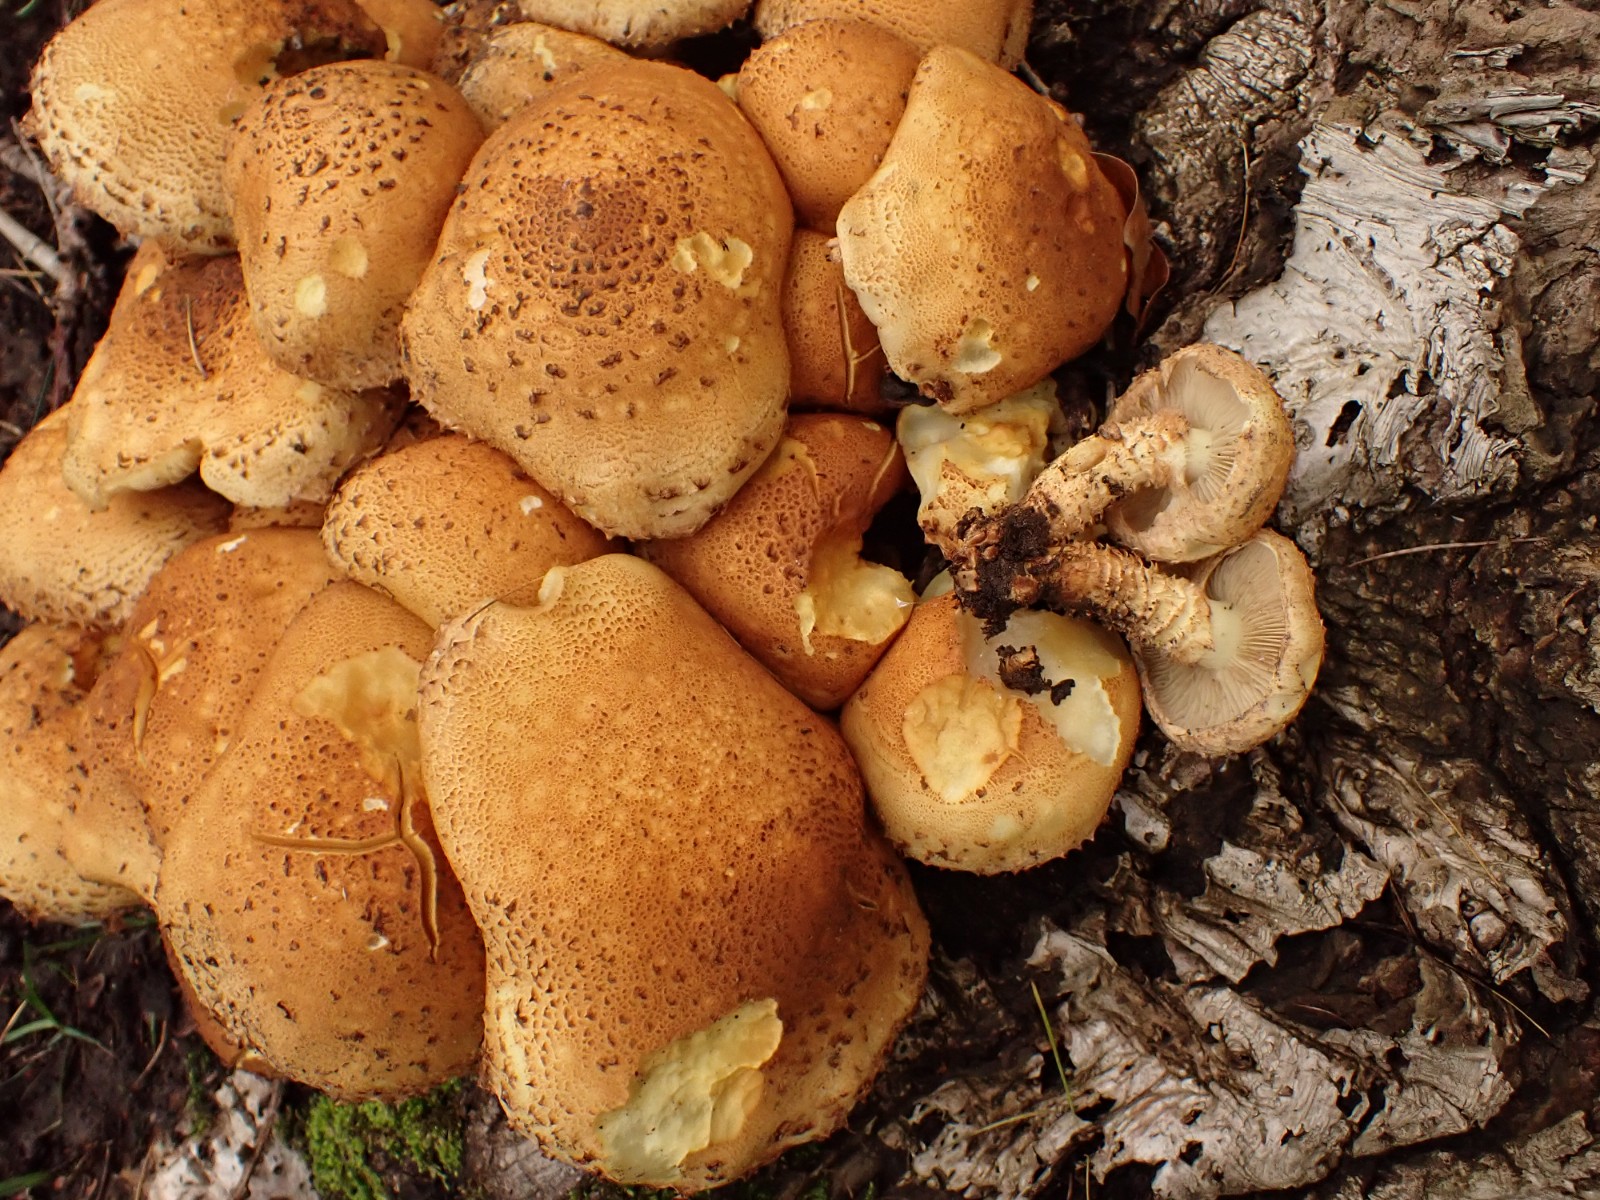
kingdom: Fungi
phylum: Basidiomycota
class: Agaricomycetes
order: Agaricales
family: Strophariaceae
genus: Pholiota
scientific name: Pholiota squarrosa
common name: krumskællet skælhat
